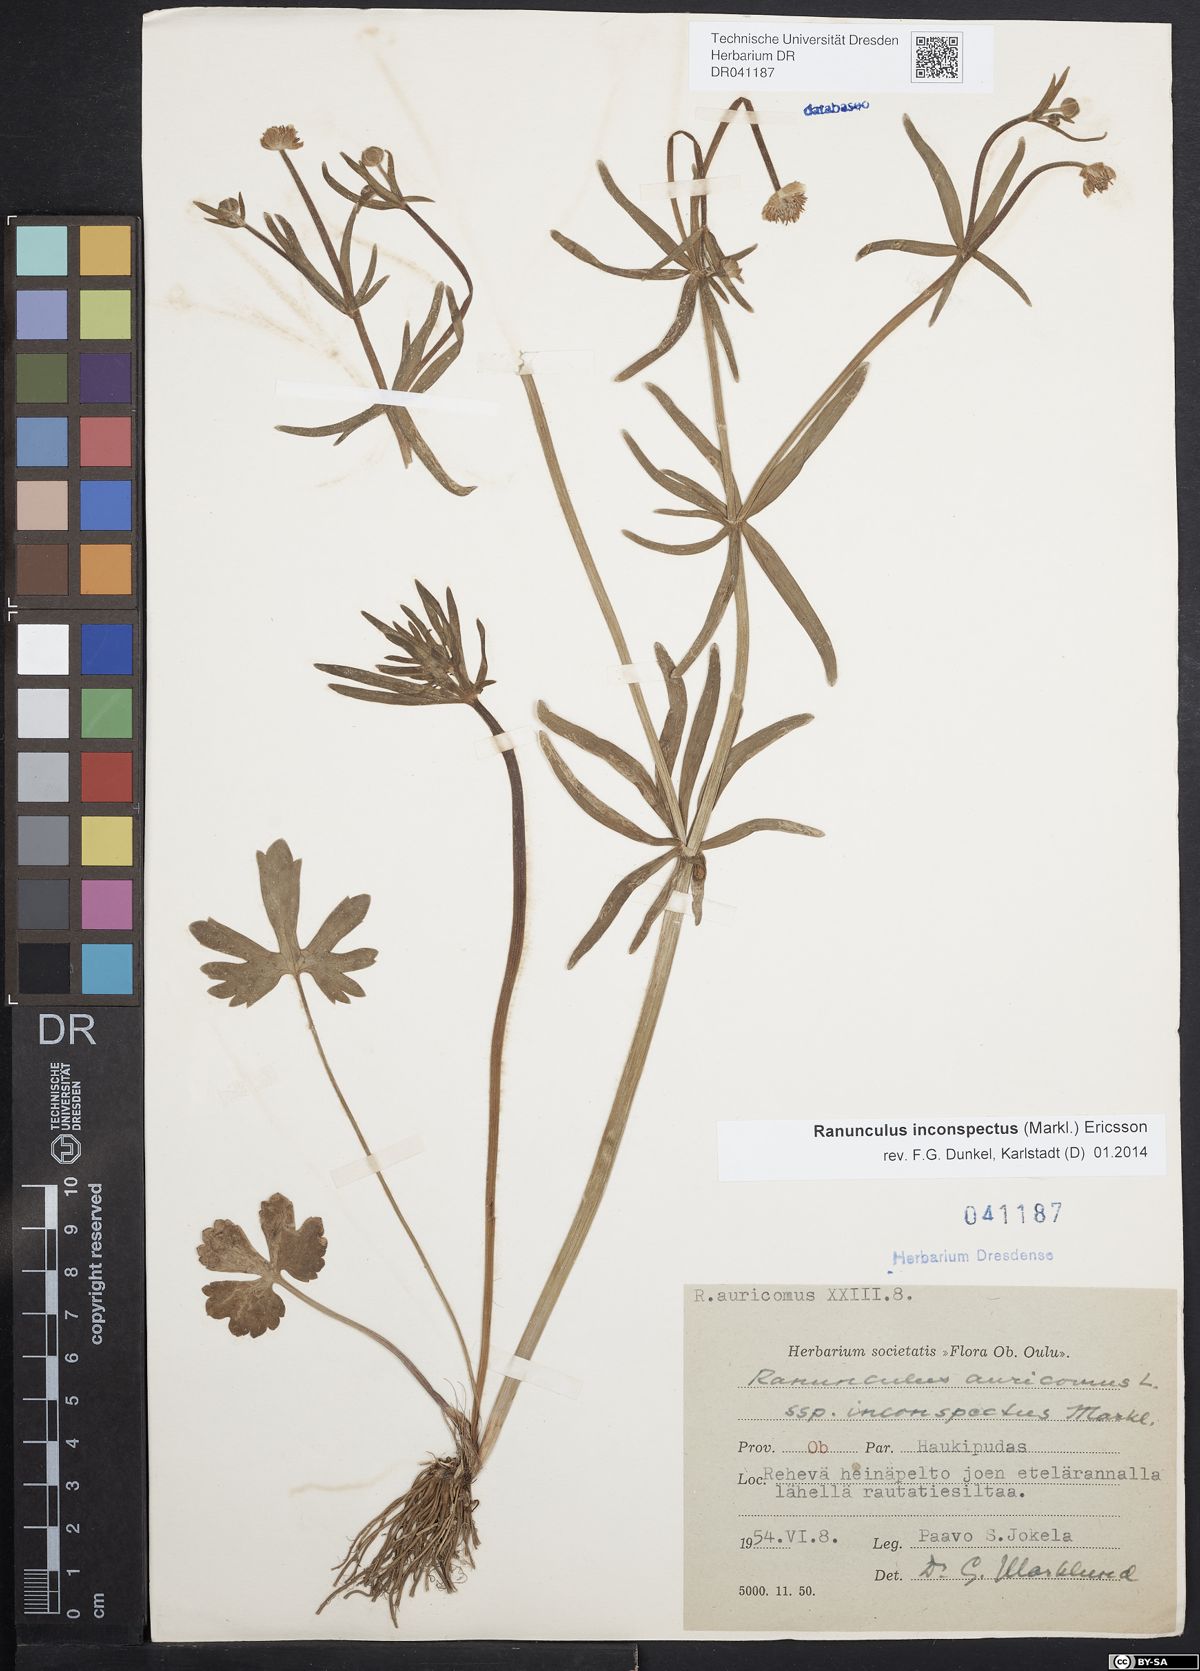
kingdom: Plantae
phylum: Tracheophyta
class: Magnoliopsida
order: Ranunculales
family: Ranunculaceae
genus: Ranunculus
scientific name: Ranunculus inconspectus
